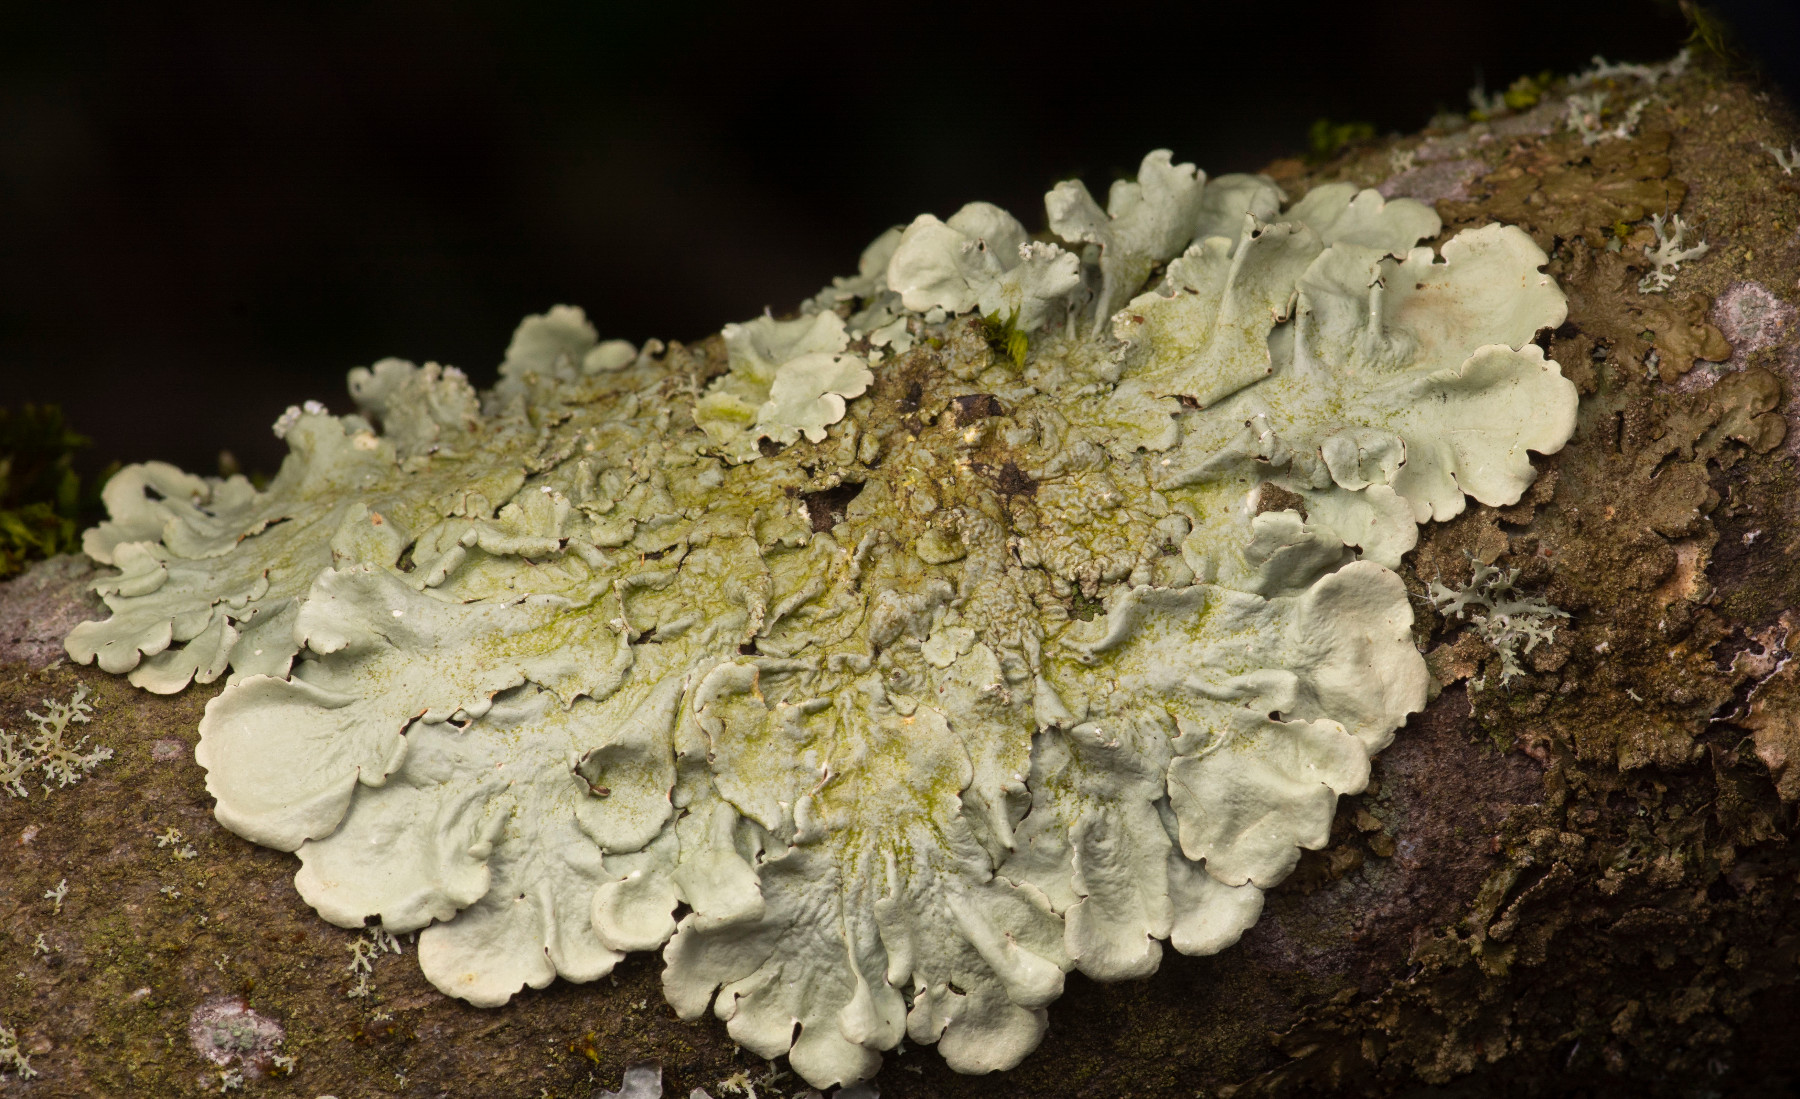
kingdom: Fungi
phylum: Ascomycota
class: Lecanoromycetes
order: Lecanorales
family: Parmeliaceae
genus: Flavoparmelia
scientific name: Flavoparmelia caperata
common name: gulgrøn skållav
